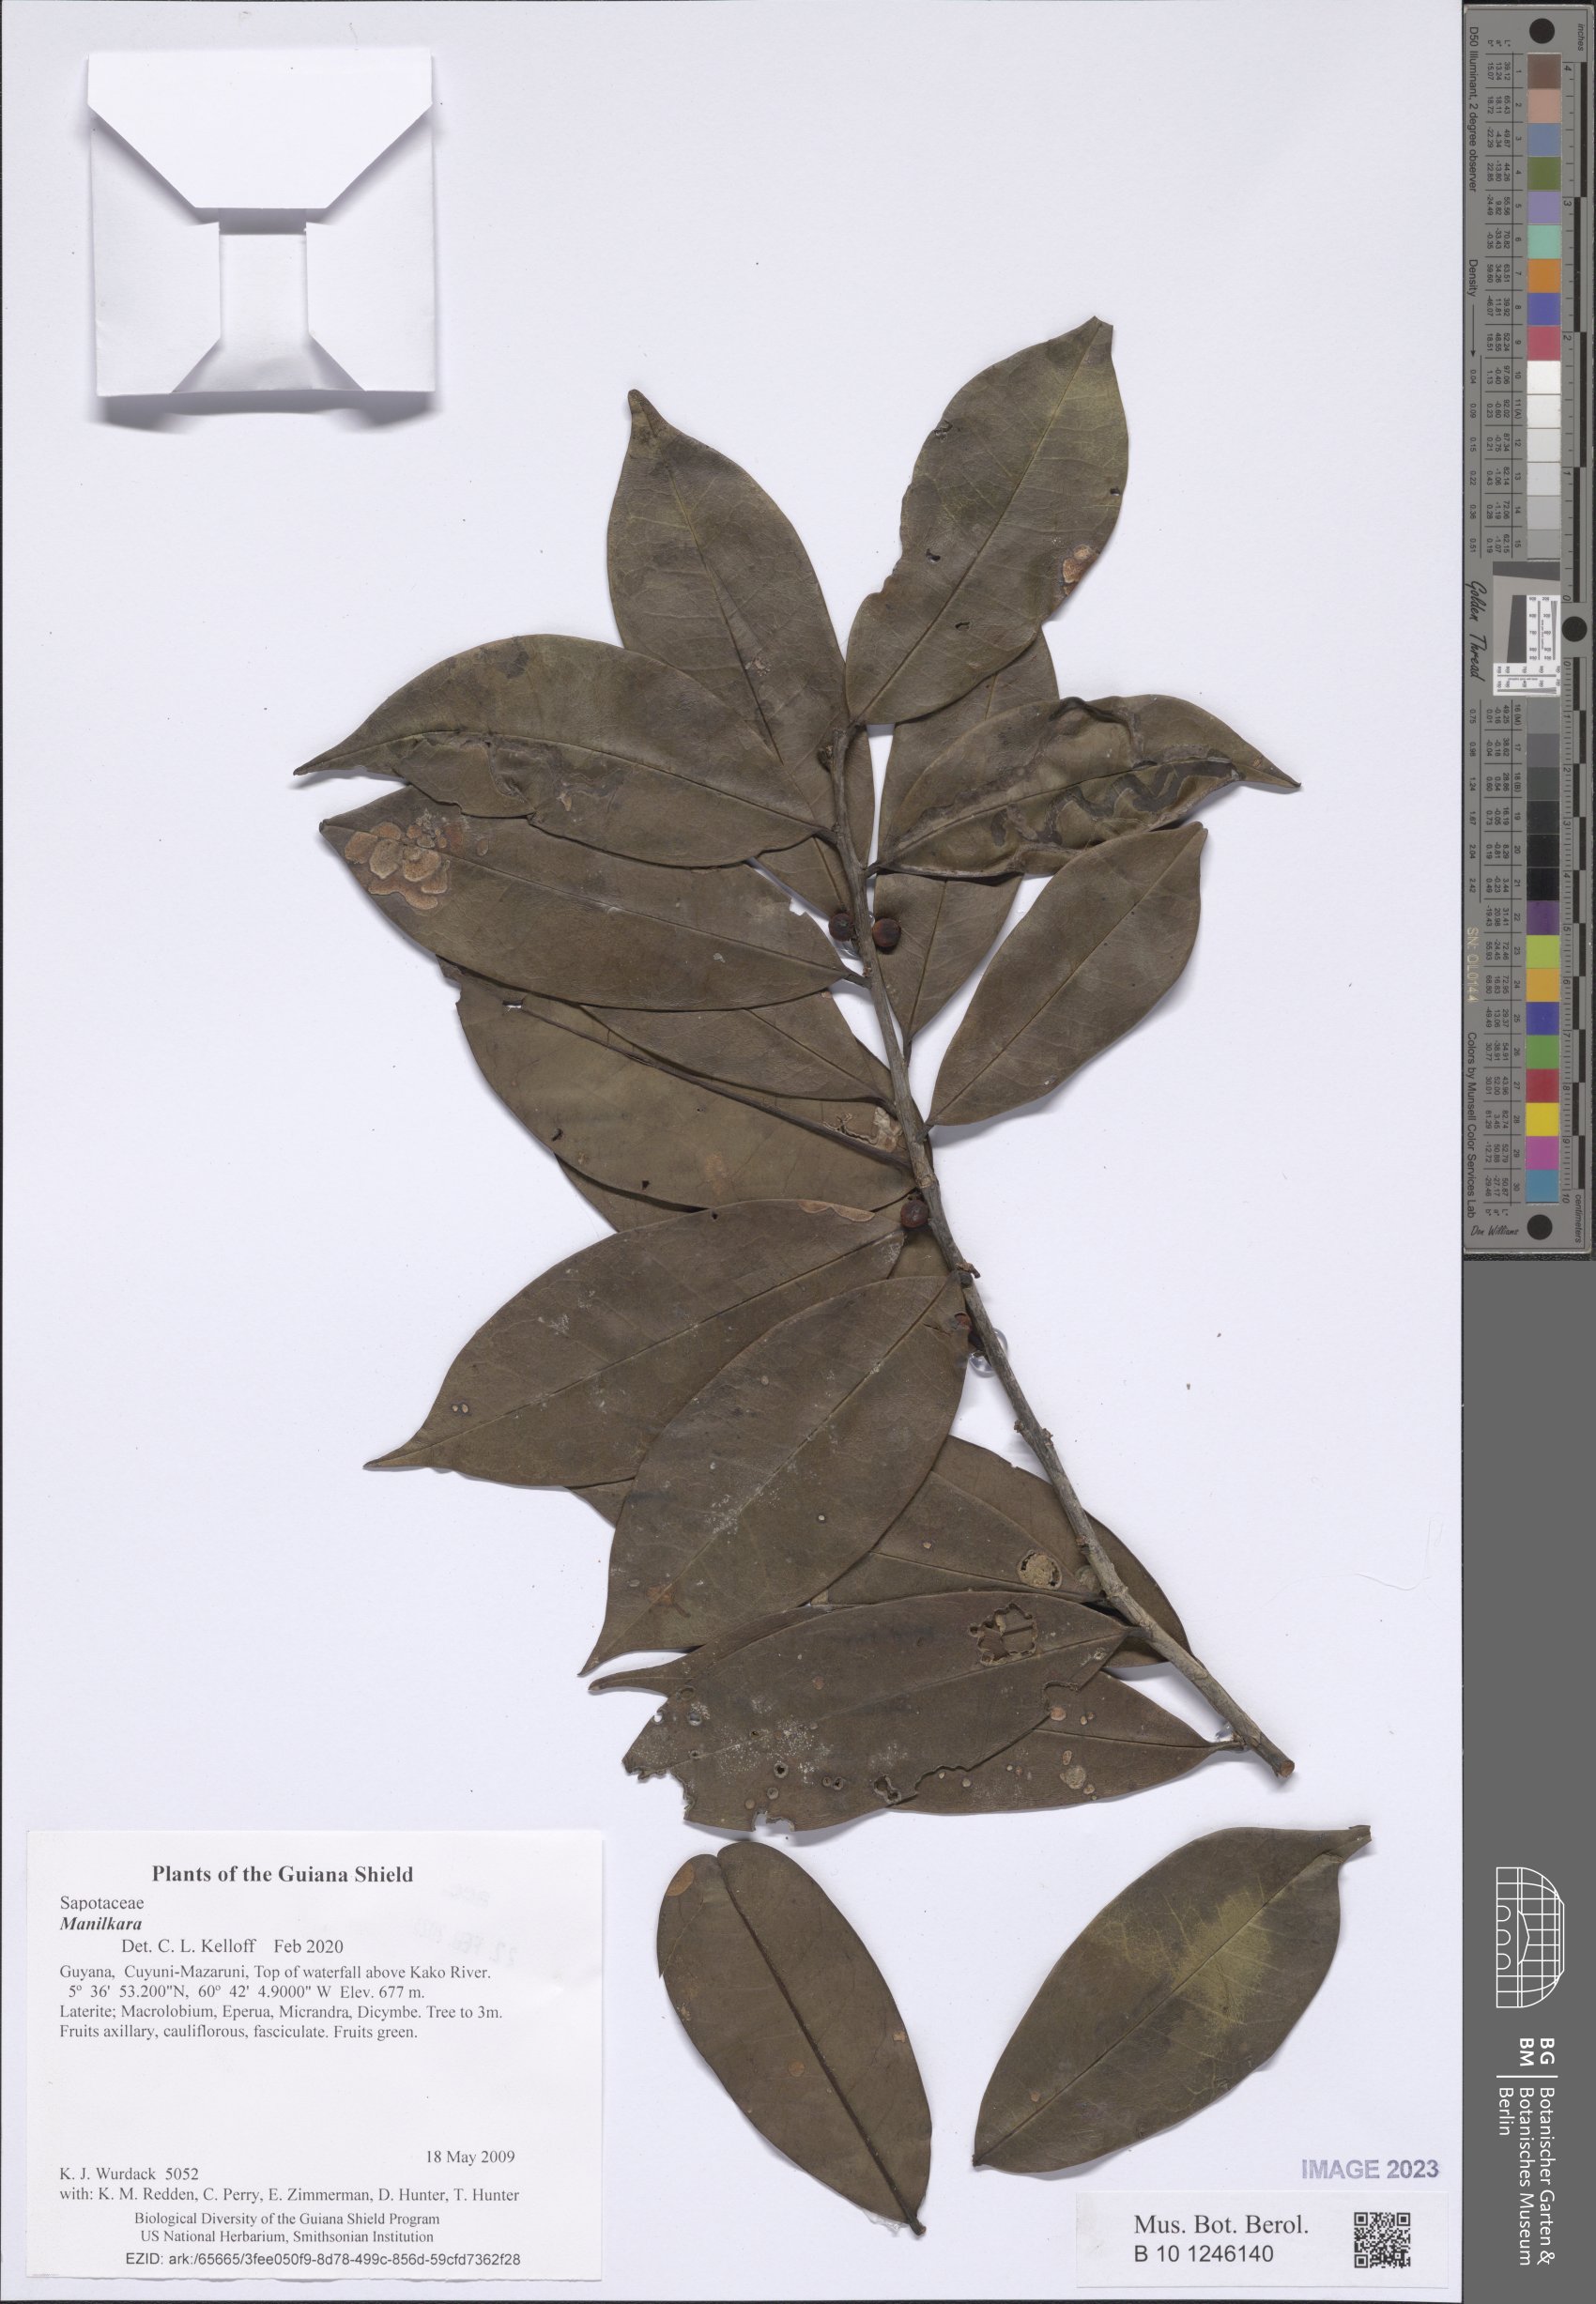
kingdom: Plantae
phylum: Tracheophyta
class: Magnoliopsida
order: Ericales
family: Sapotaceae
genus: Manilkara
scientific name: Manilkara
